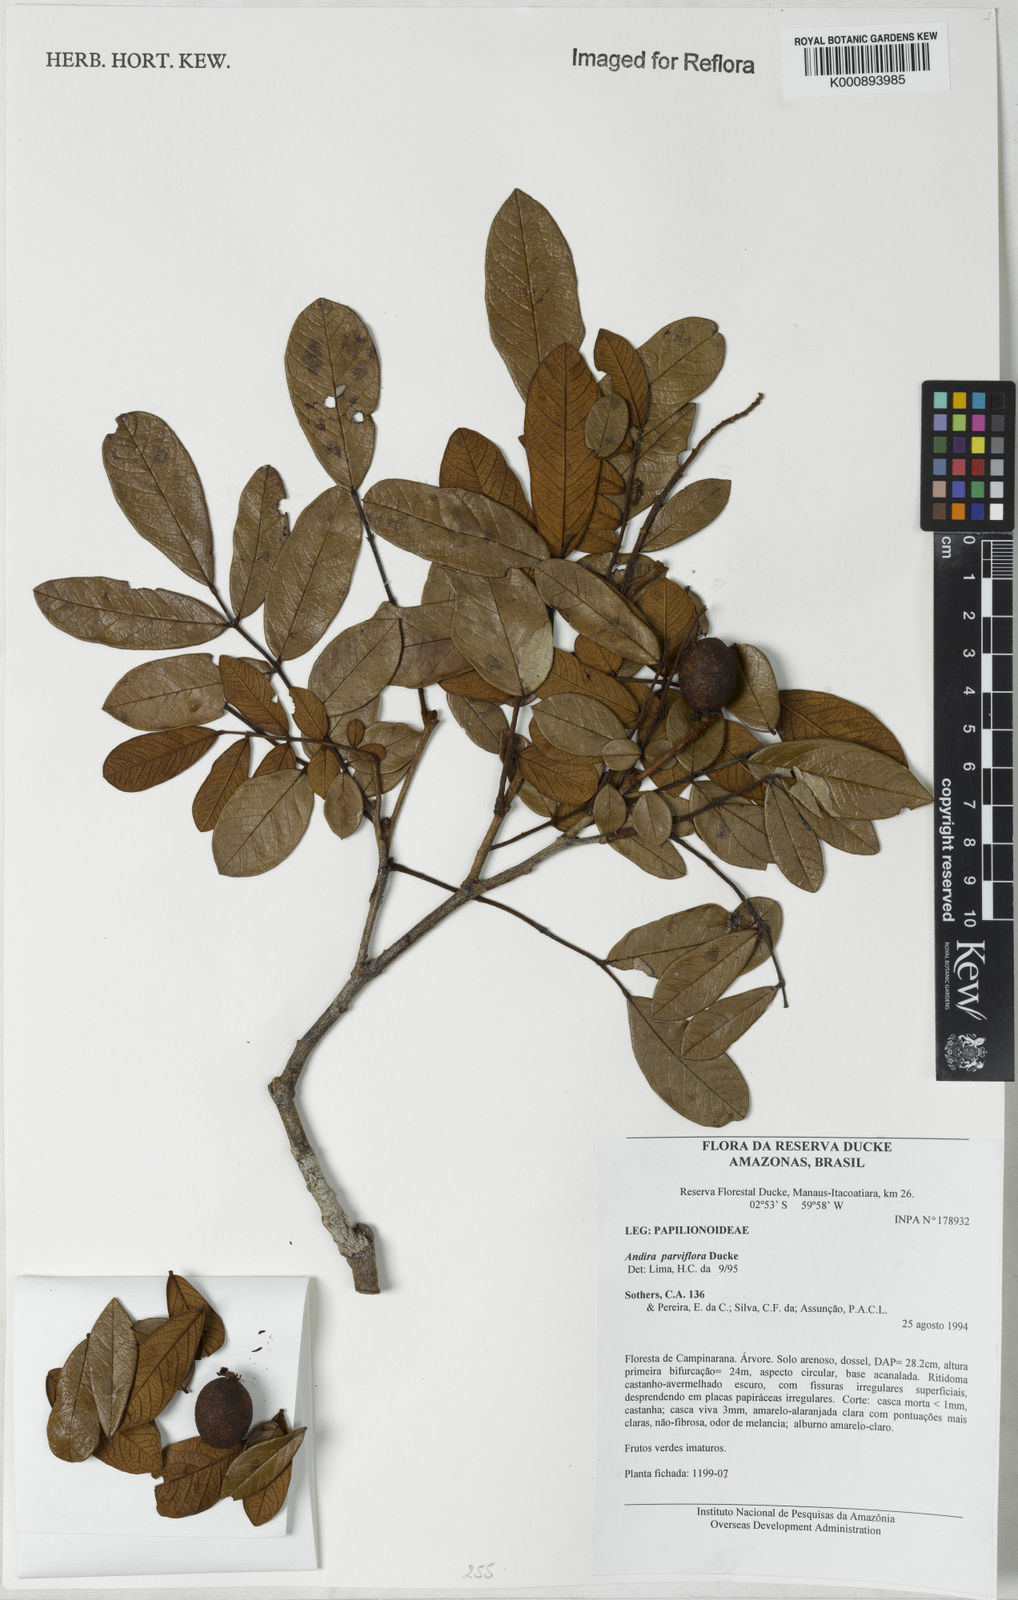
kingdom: Plantae
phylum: Tracheophyta
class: Magnoliopsida
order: Fabales
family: Fabaceae
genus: Andira
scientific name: Andira parviflora
